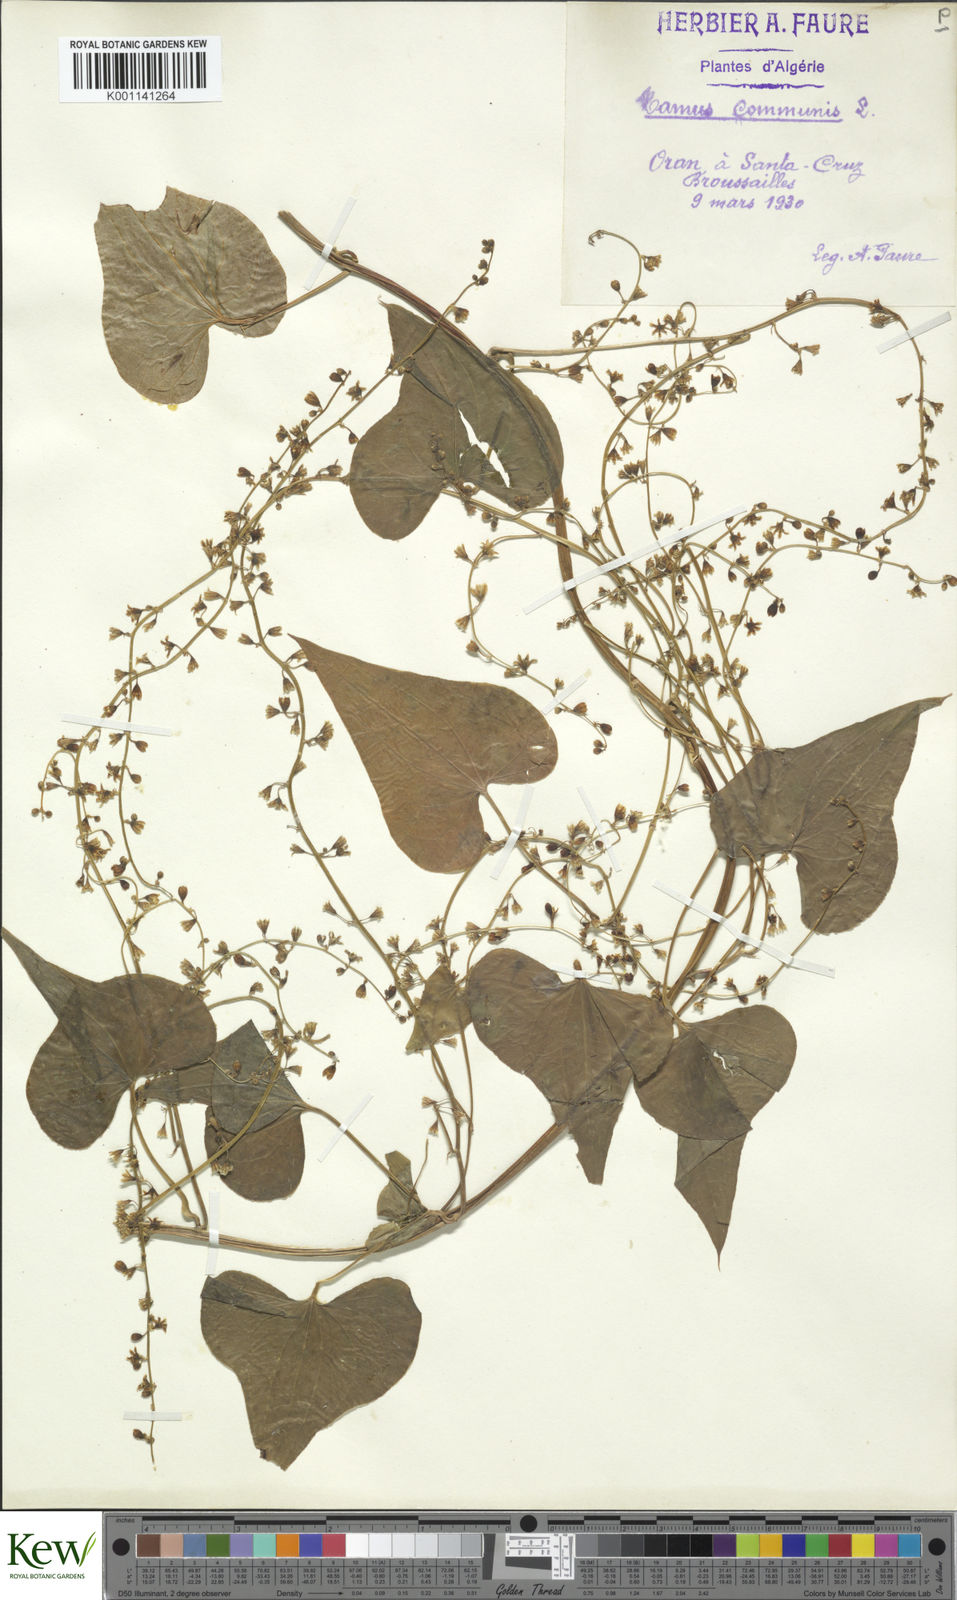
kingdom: Plantae
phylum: Tracheophyta
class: Liliopsida
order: Dioscoreales
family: Dioscoreaceae
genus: Dioscorea
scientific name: Dioscorea communis
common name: Black-bindweed
